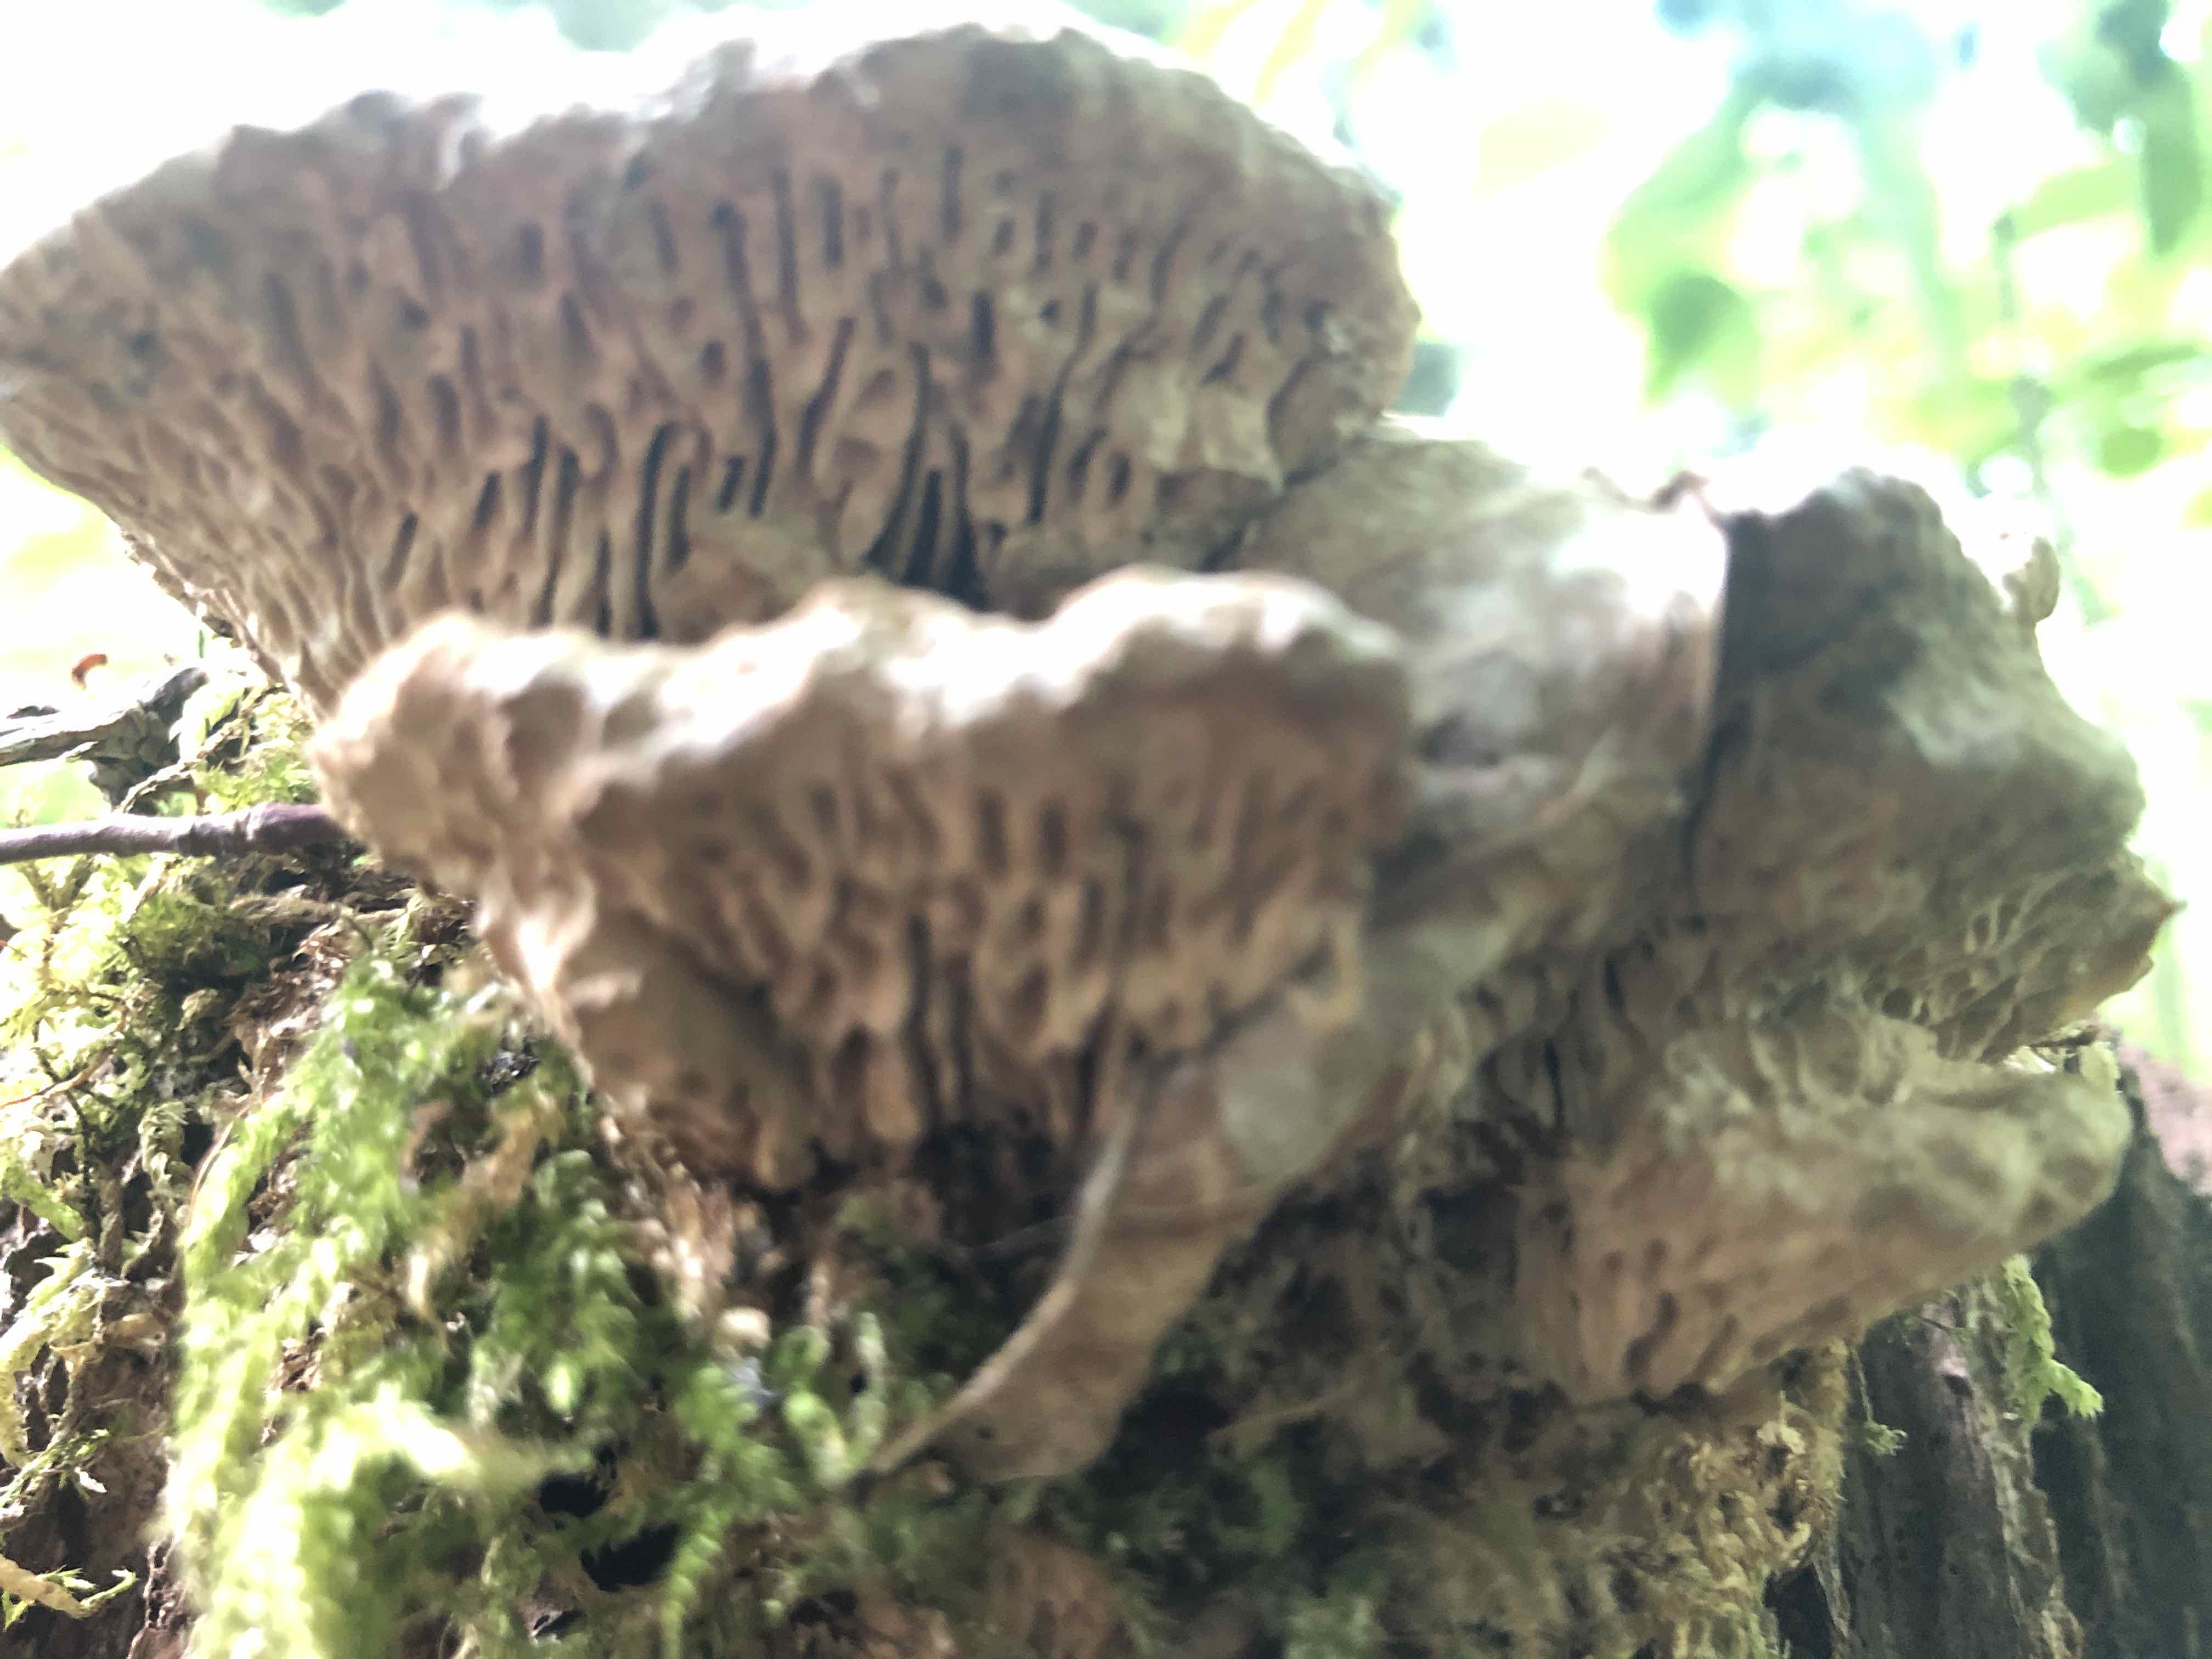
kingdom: Fungi
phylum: Basidiomycota
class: Agaricomycetes
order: Polyporales
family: Fomitopsidaceae
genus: Daedalea
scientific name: Daedalea quercina
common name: ege-labyrintsvamp
